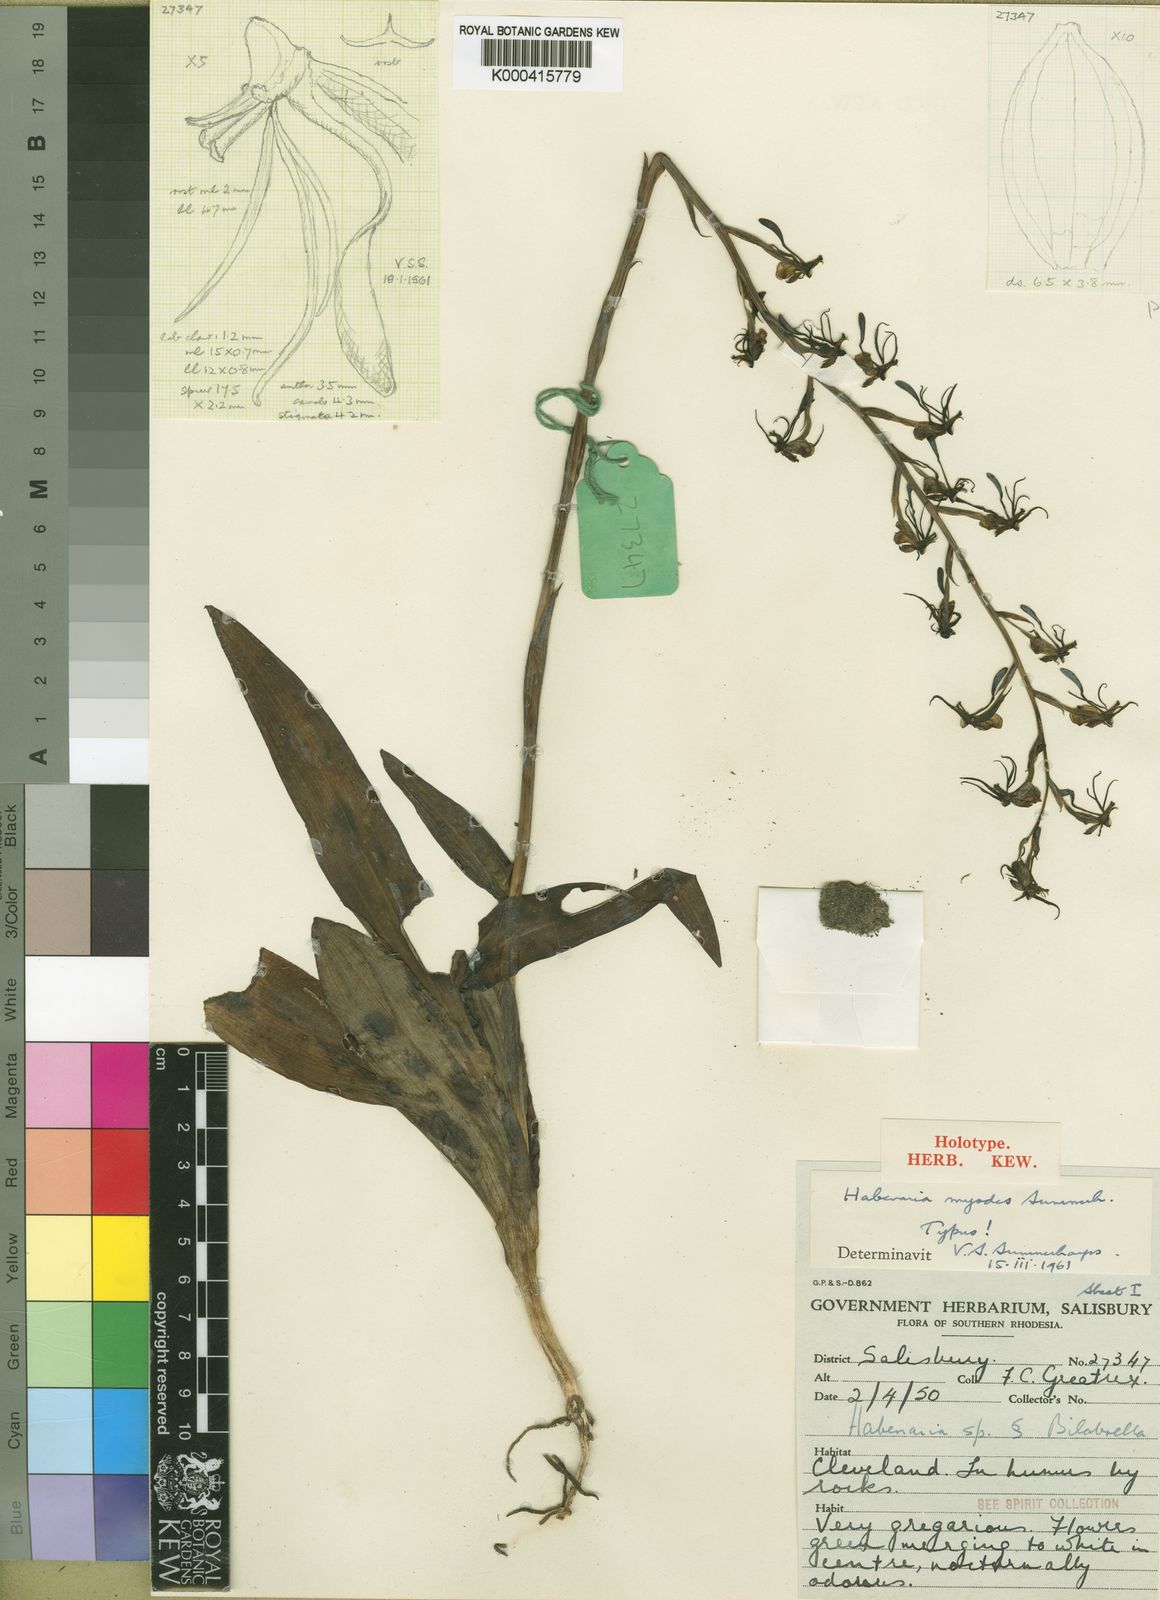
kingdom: Plantae
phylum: Tracheophyta
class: Liliopsida
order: Asparagales
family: Orchidaceae
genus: Habenaria
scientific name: Habenaria myodes
